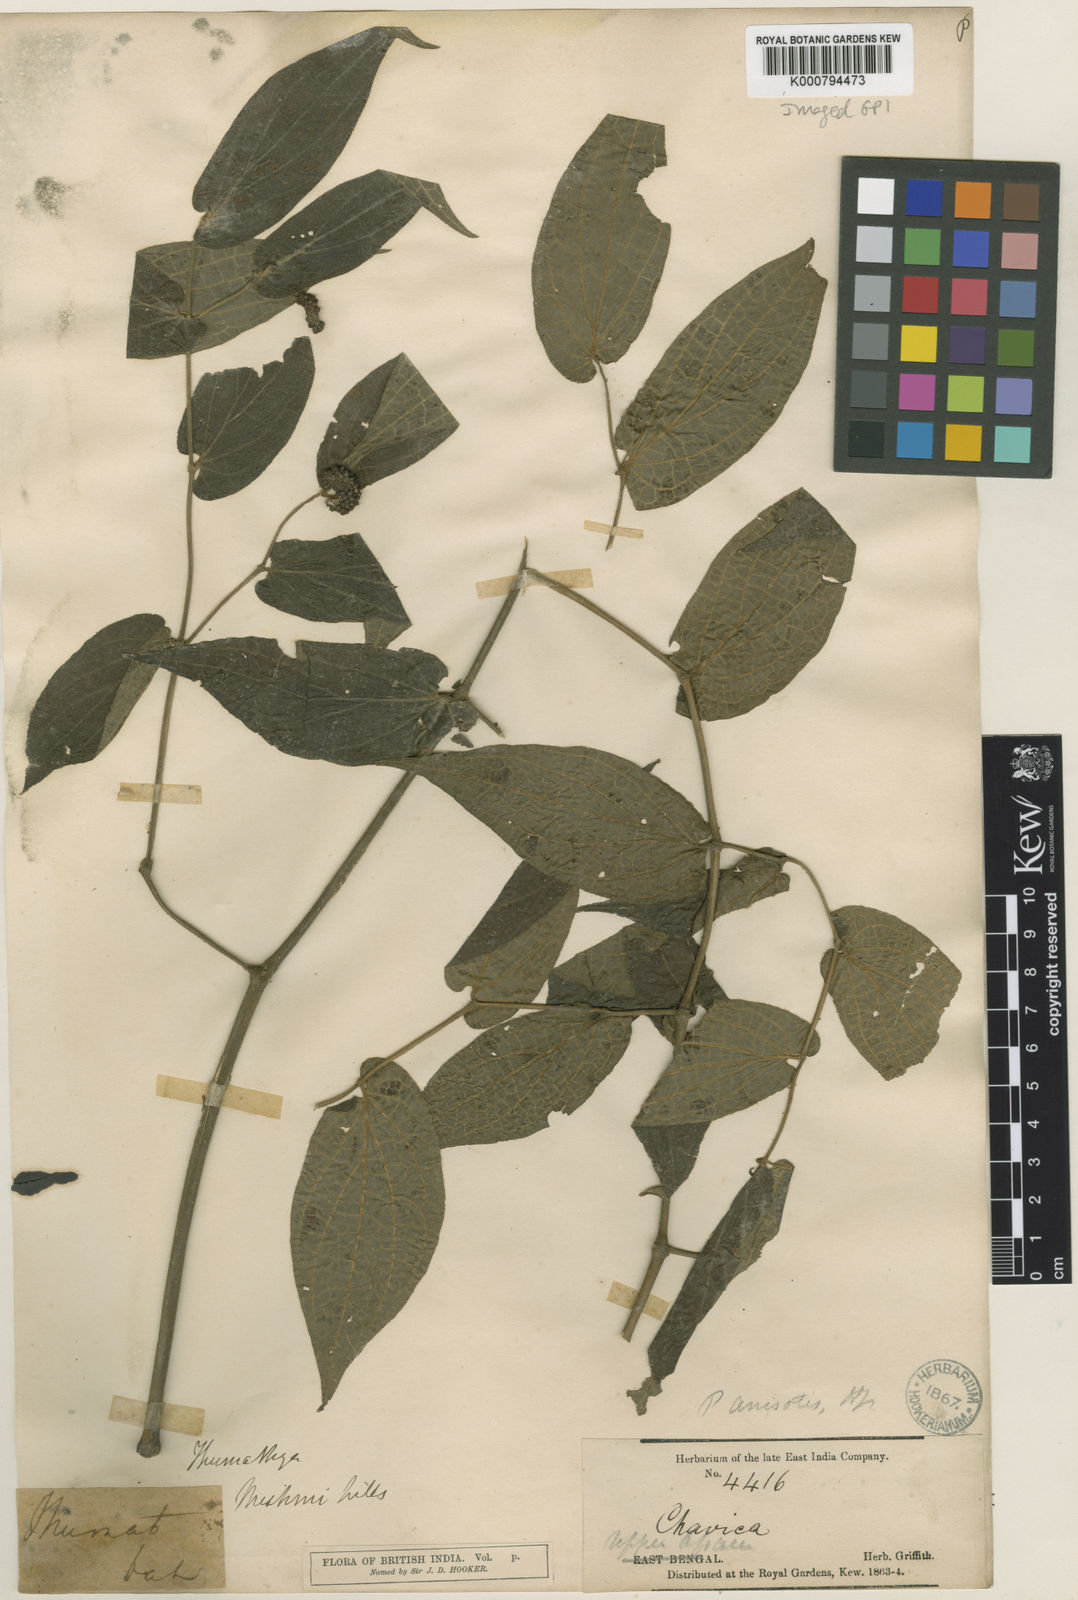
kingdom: Plantae
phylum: Tracheophyta
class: Magnoliopsida
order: Piperales
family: Piperaceae
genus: Piper
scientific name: Piper anisotis
